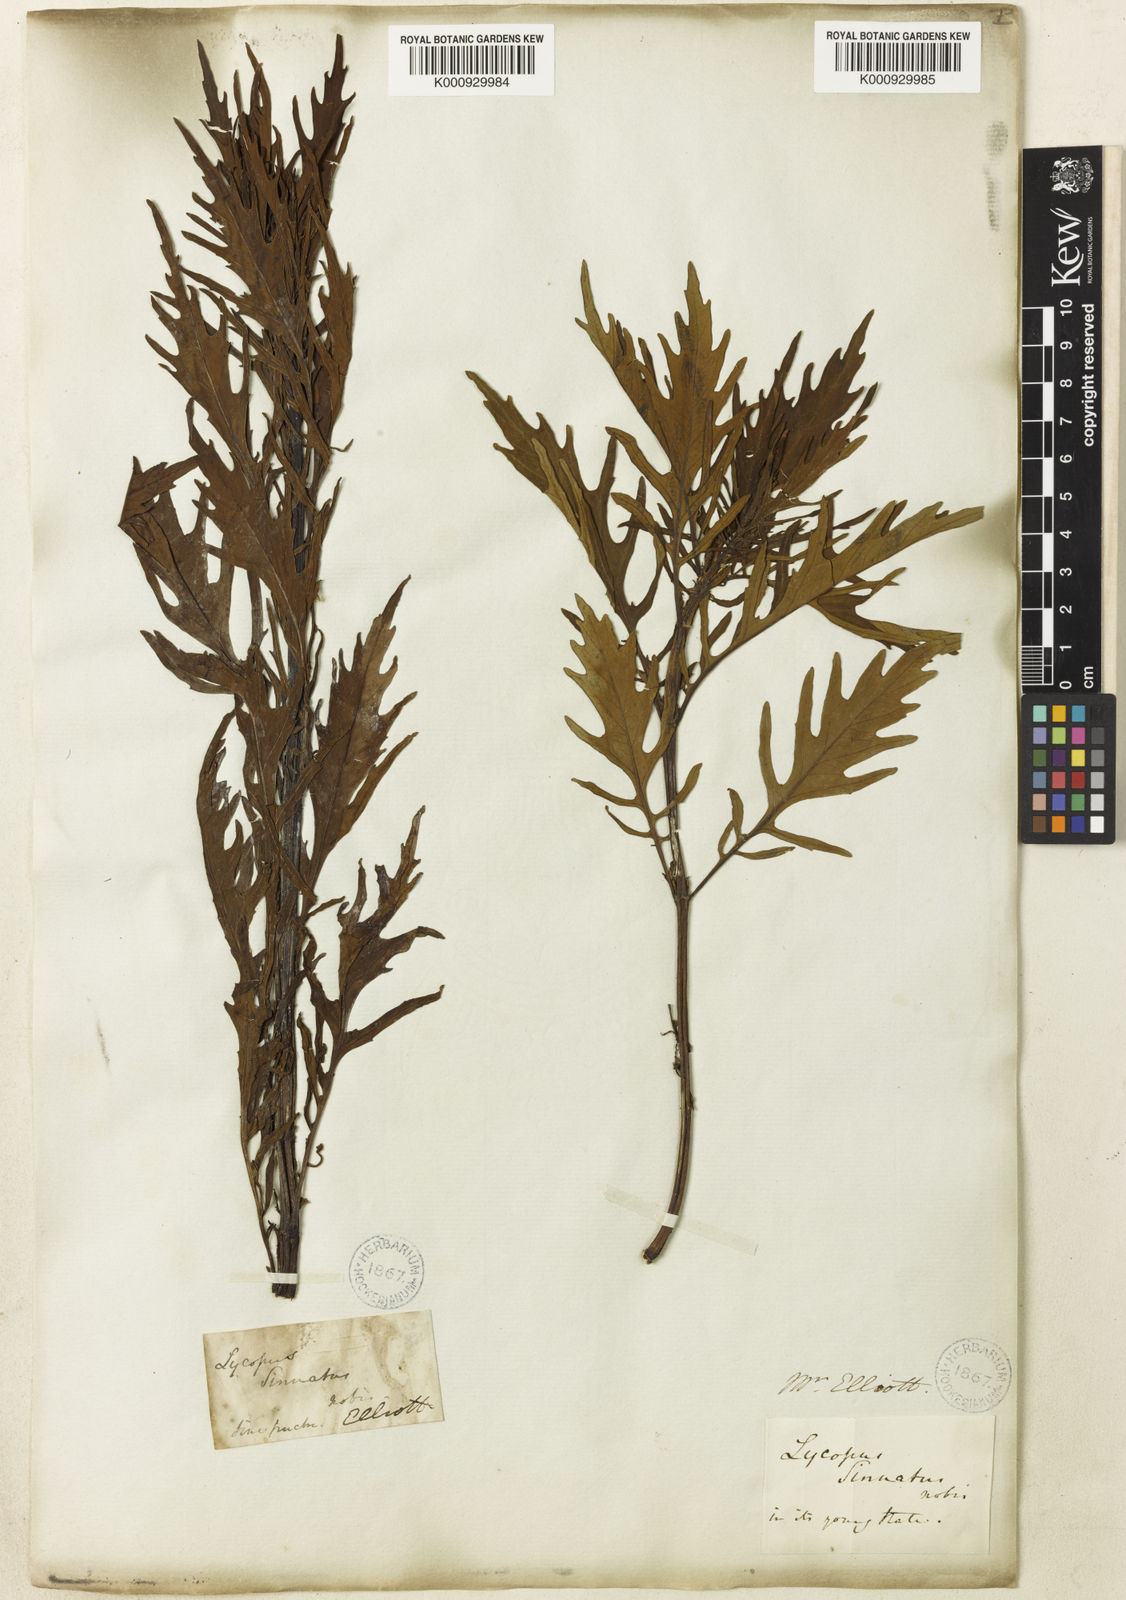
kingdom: Plantae
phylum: Tracheophyta
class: Magnoliopsida
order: Lamiales
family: Lamiaceae
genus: Lycopus
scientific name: Lycopus
